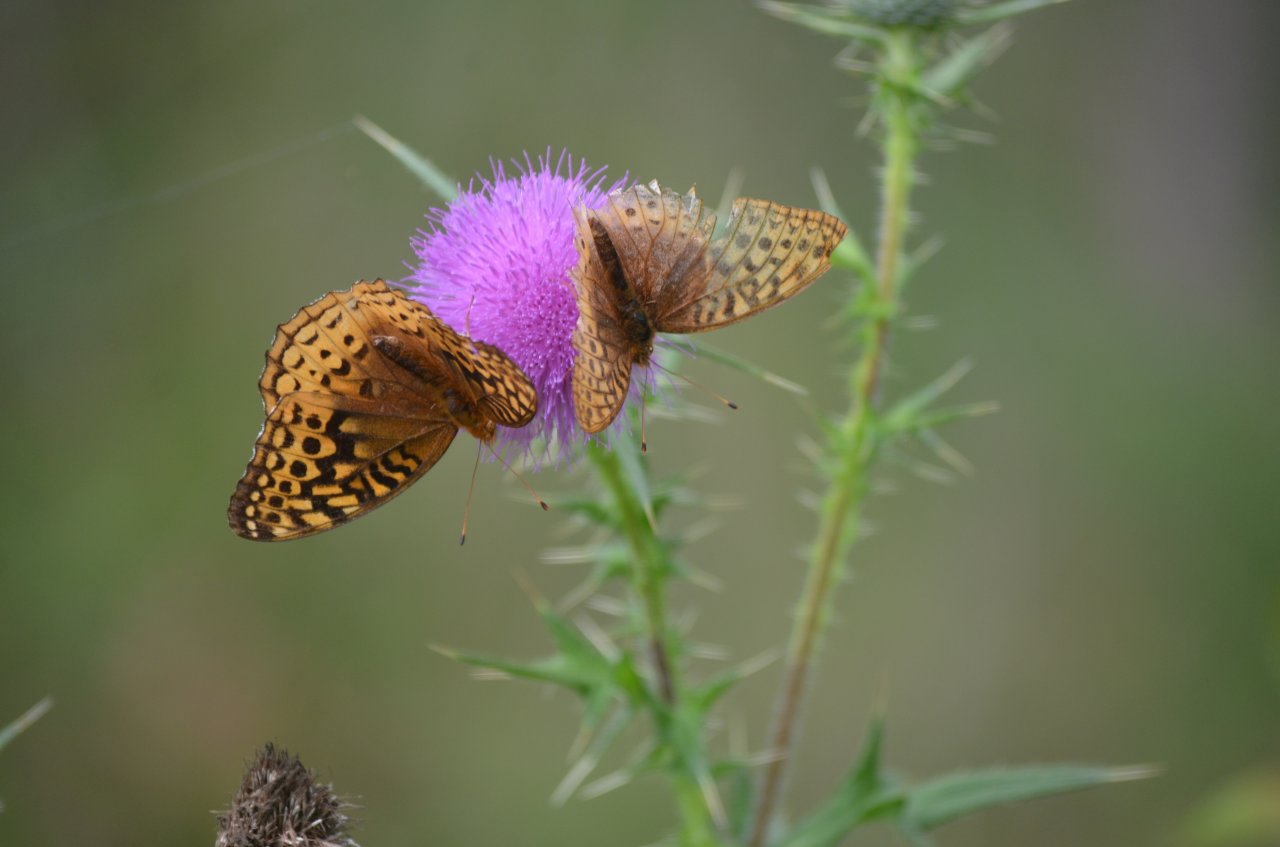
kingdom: Animalia
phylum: Arthropoda
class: Insecta
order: Lepidoptera
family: Nymphalidae
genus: Speyeria
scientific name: Speyeria cybele
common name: Great Spangled Fritillary
